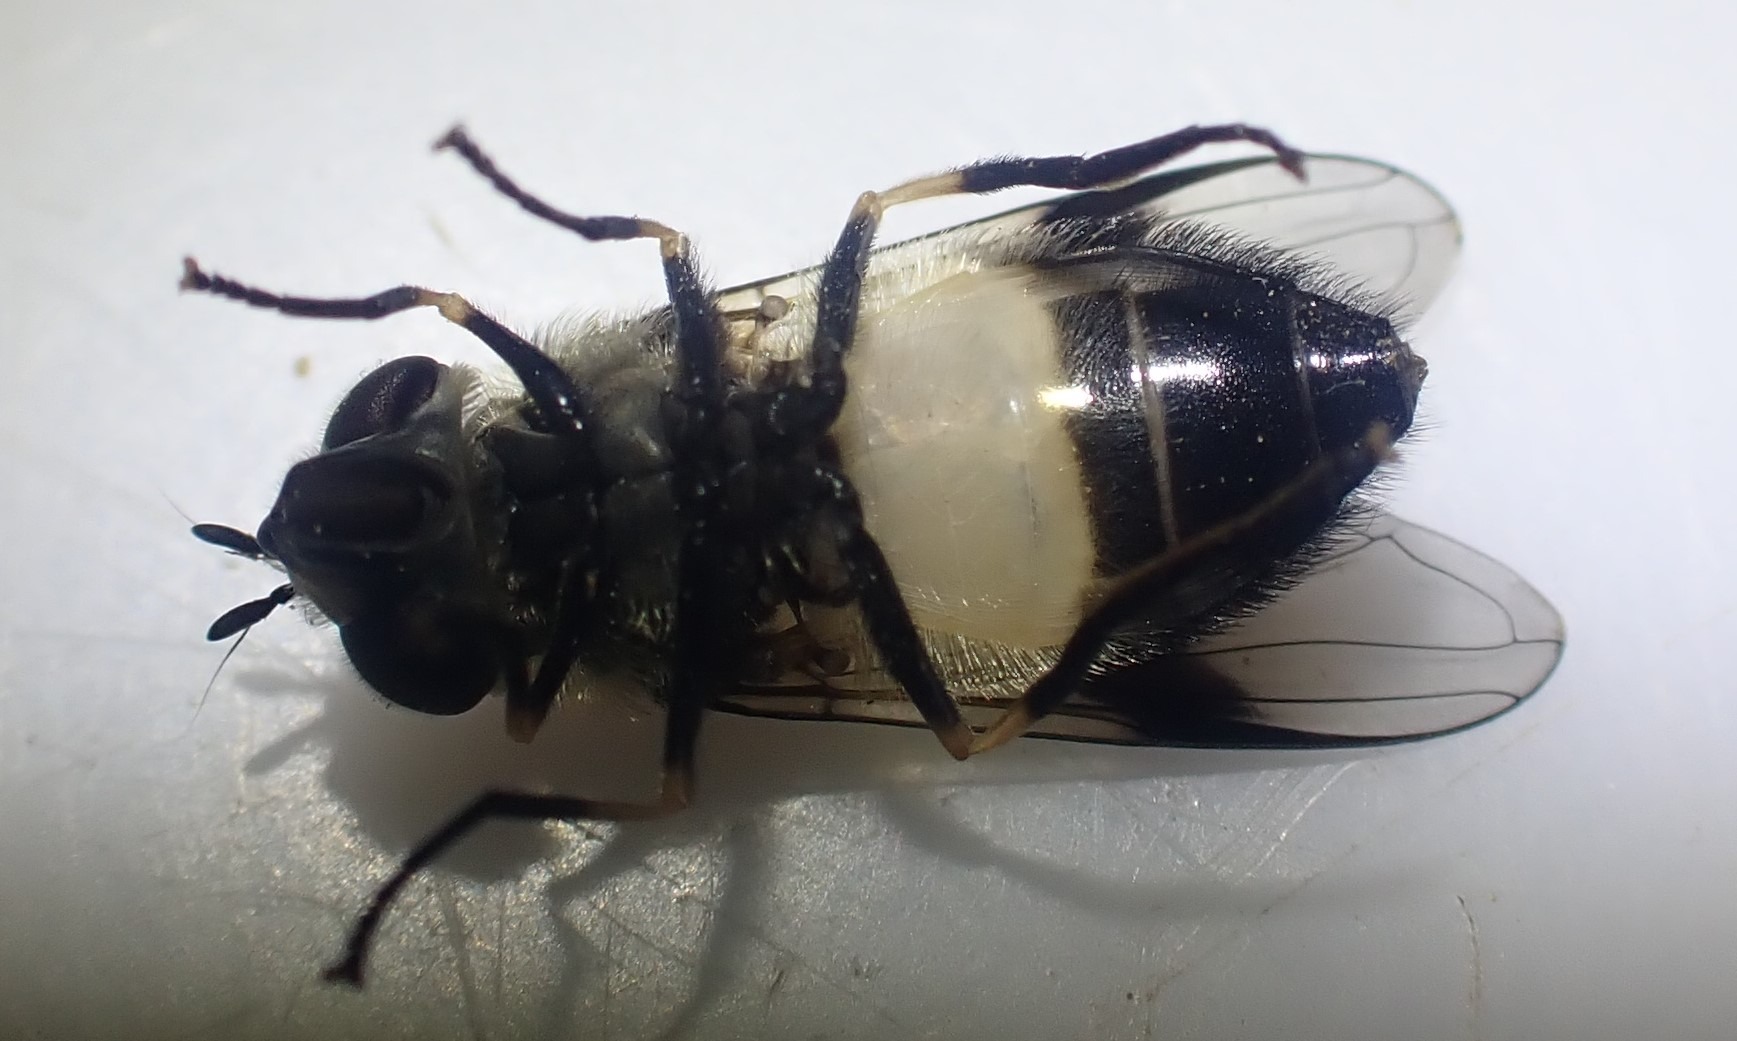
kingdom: Animalia
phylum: Arthropoda
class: Insecta
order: Diptera
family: Syrphidae
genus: Leucozona
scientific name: Leucozona inopinata
